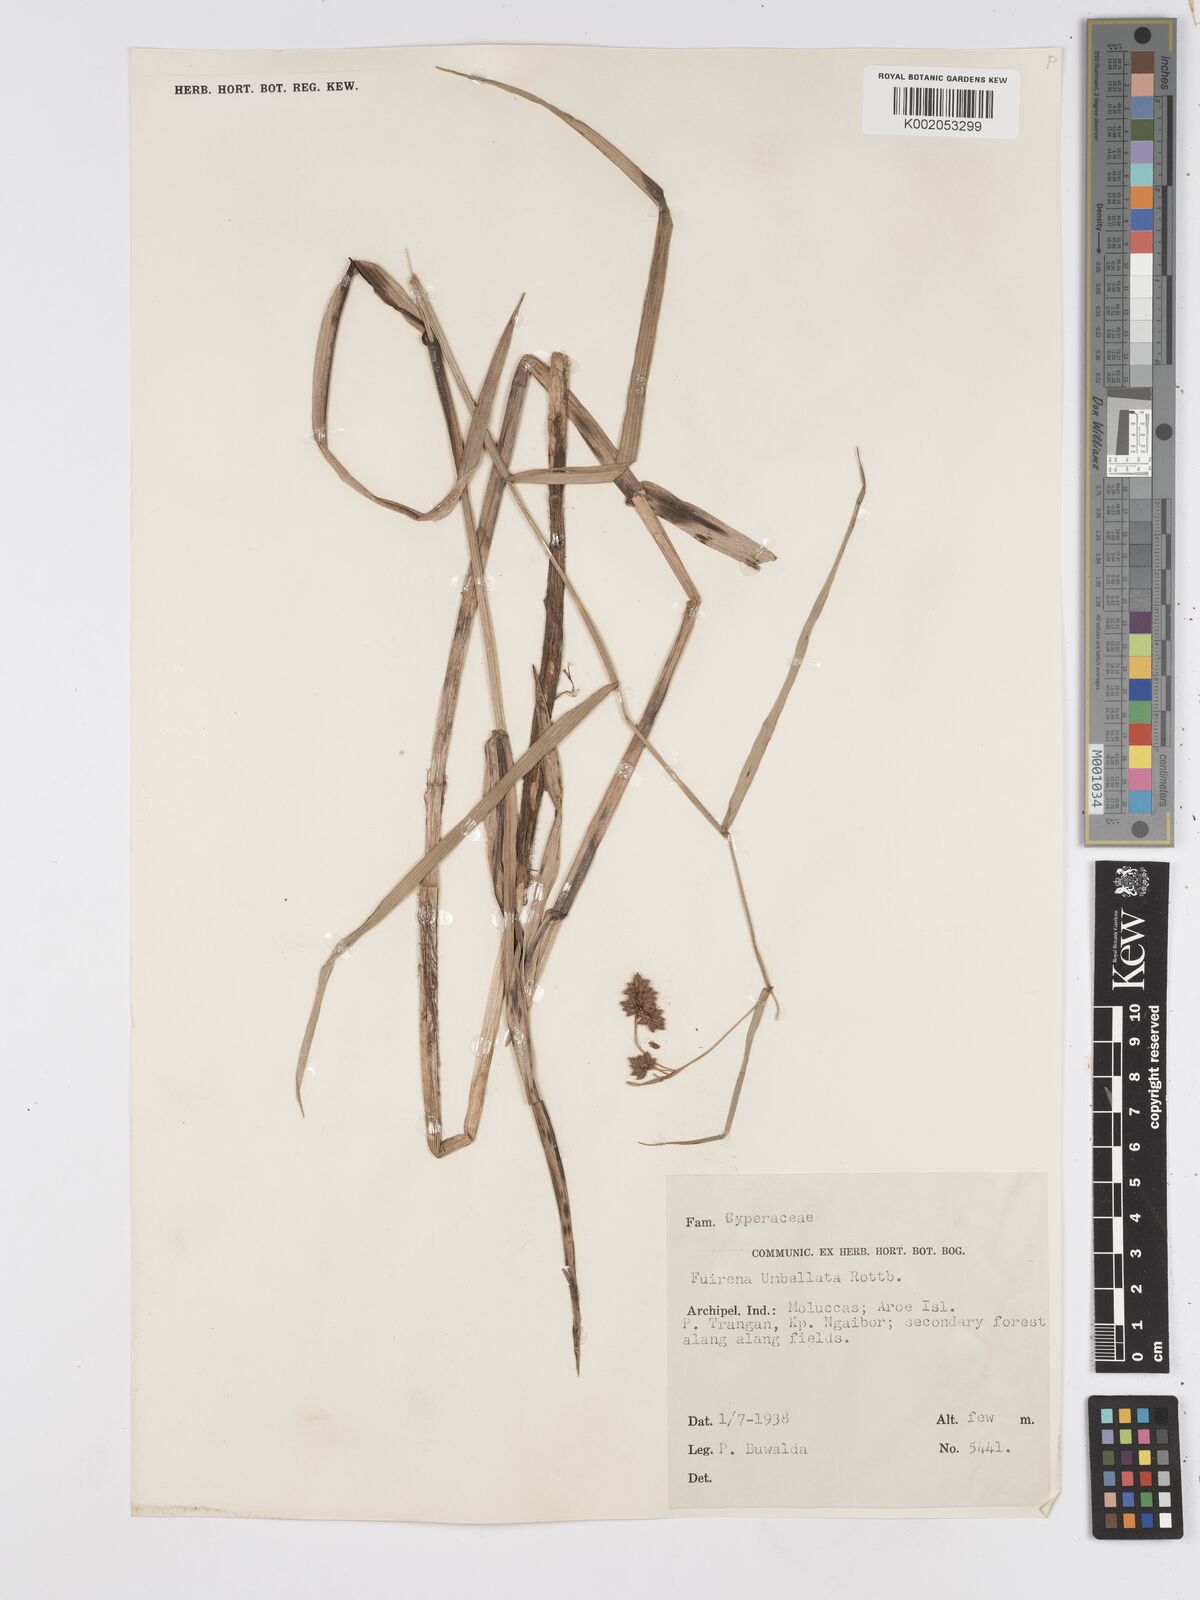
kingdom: Plantae
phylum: Tracheophyta
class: Liliopsida
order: Poales
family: Cyperaceae
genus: Fuirena
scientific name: Fuirena umbellata
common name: Yefen
